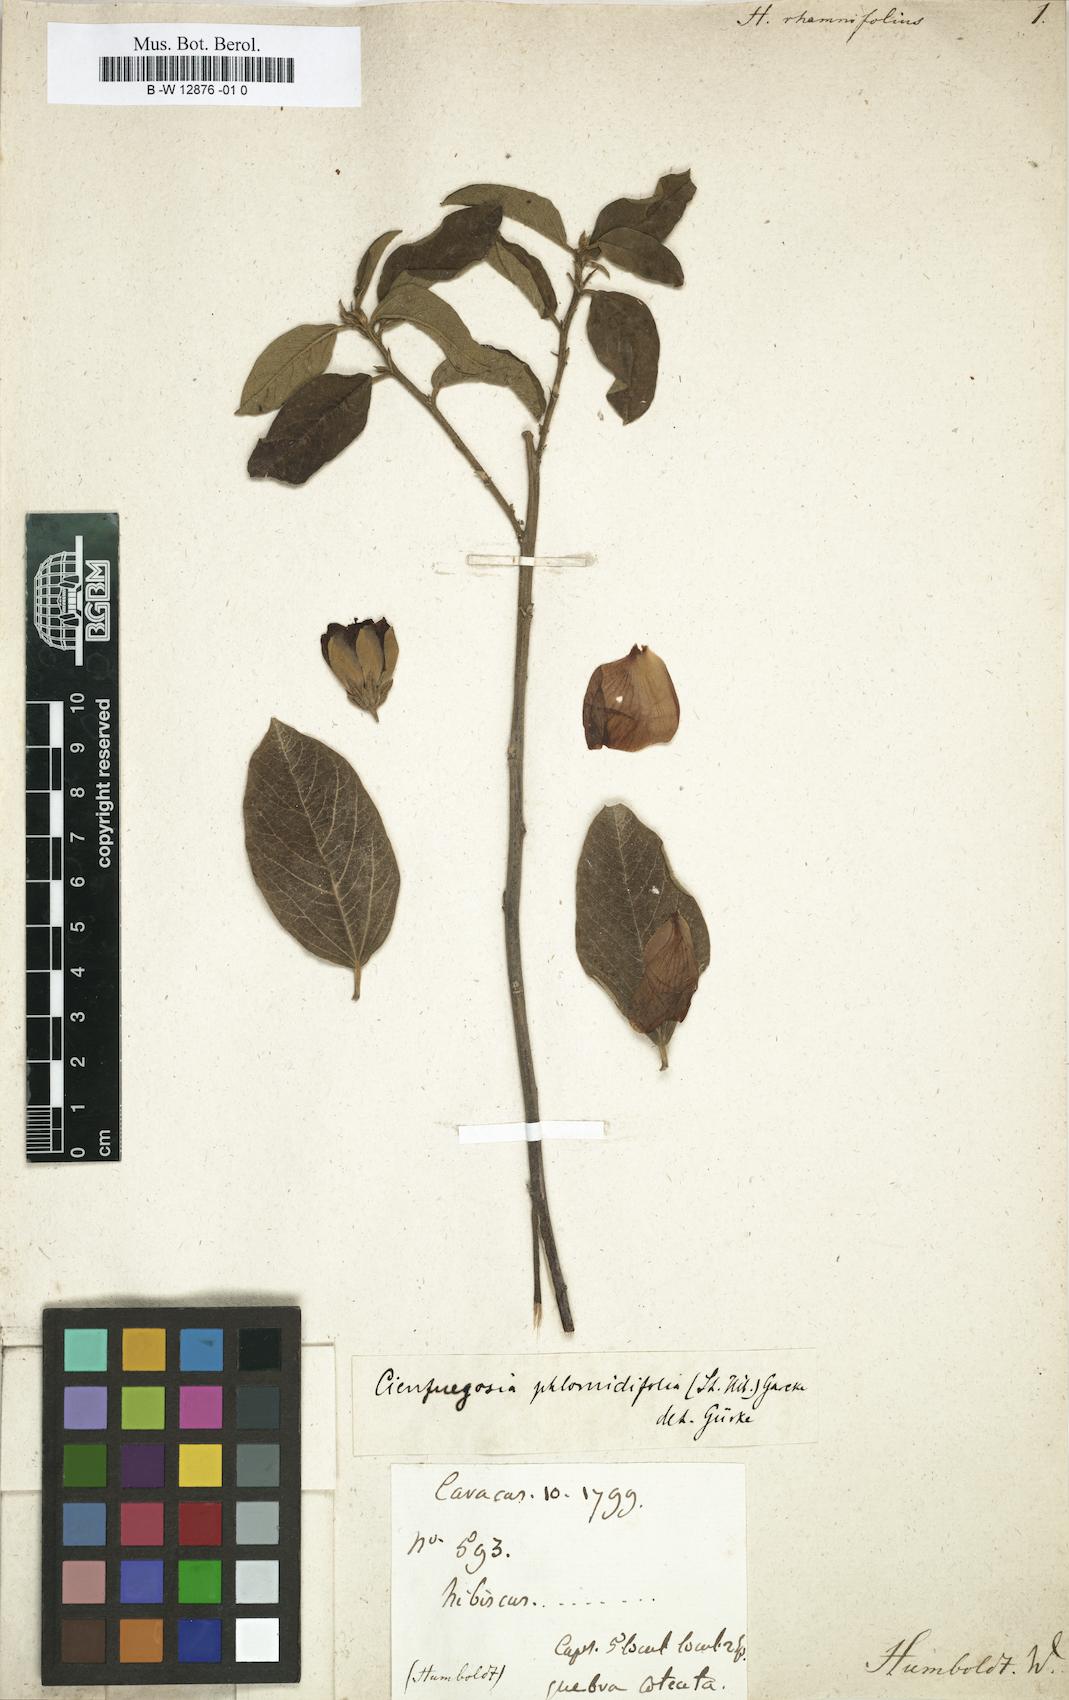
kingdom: Plantae
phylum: Tracheophyta
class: Magnoliopsida
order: Malvales
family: Malvaceae
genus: Hibiscus
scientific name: Hibiscus
